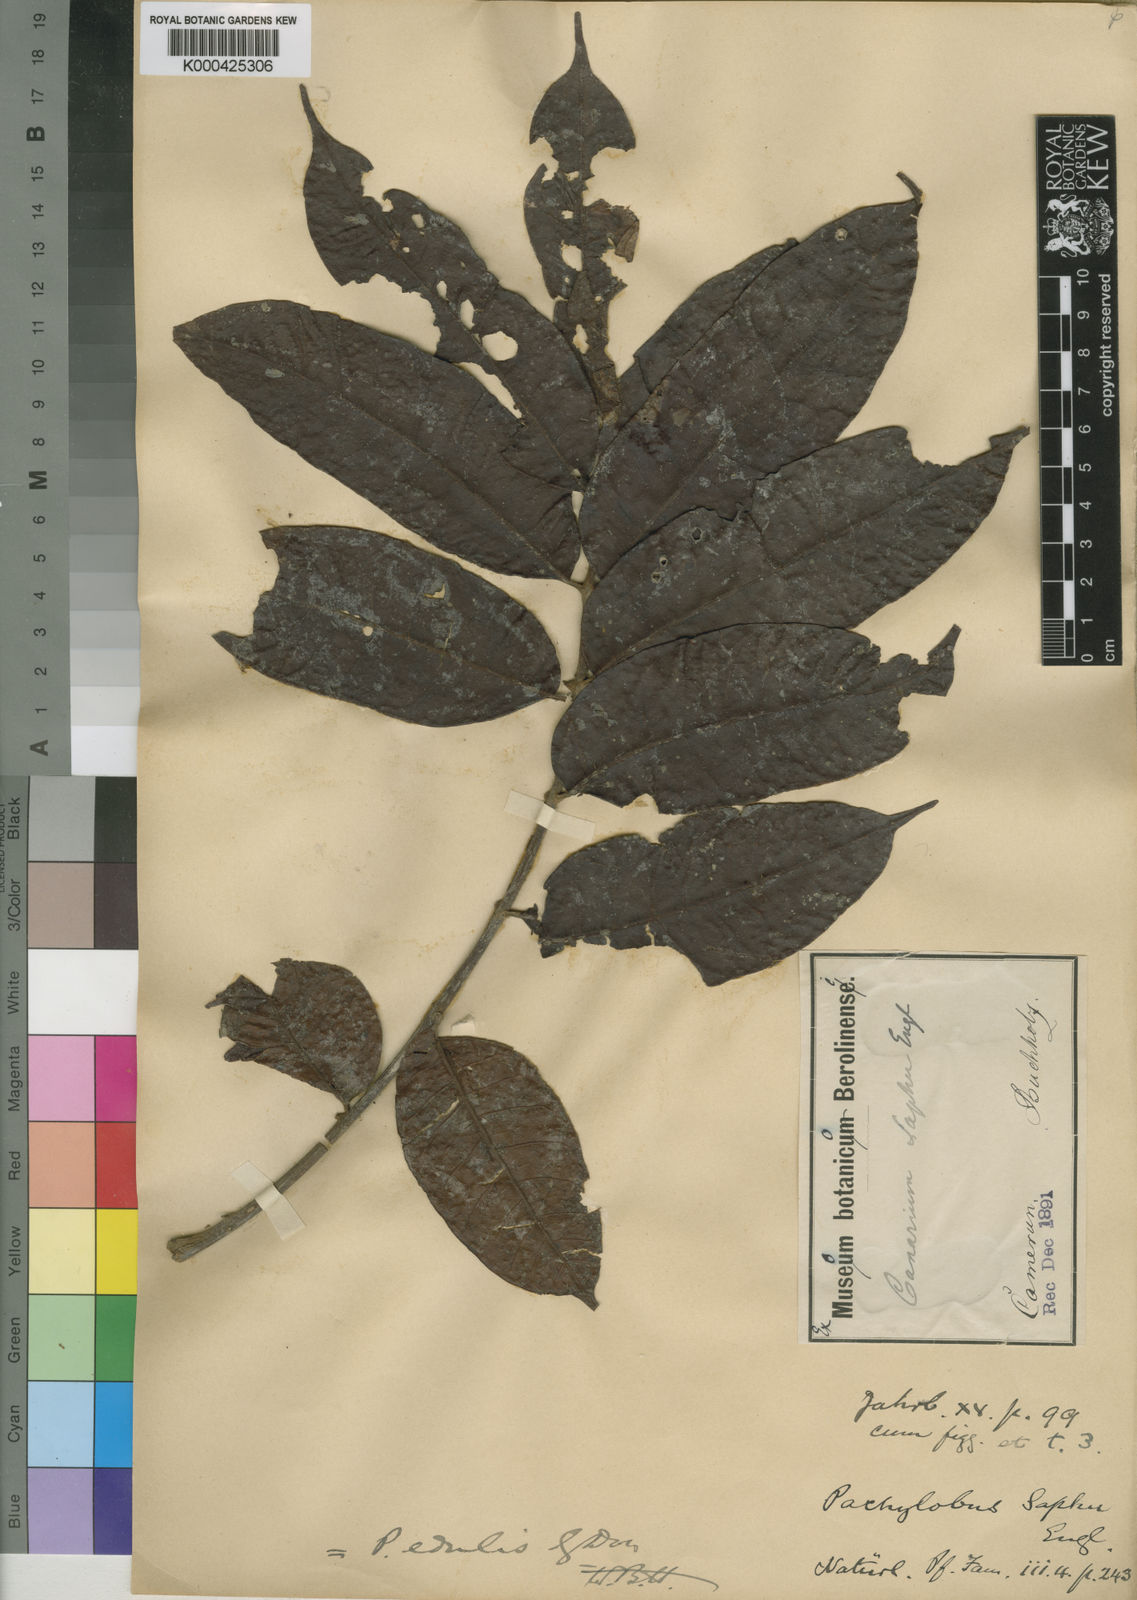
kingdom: Plantae
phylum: Tracheophyta
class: Magnoliopsida
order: Sapindales
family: Burseraceae
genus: Pachylobus
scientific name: Pachylobus edulis
